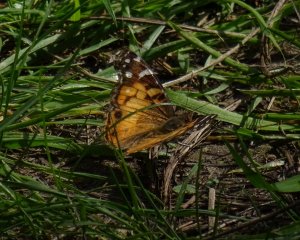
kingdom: Animalia
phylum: Arthropoda
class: Insecta
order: Lepidoptera
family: Nymphalidae
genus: Vanessa
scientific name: Vanessa virginiensis
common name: American Lady
